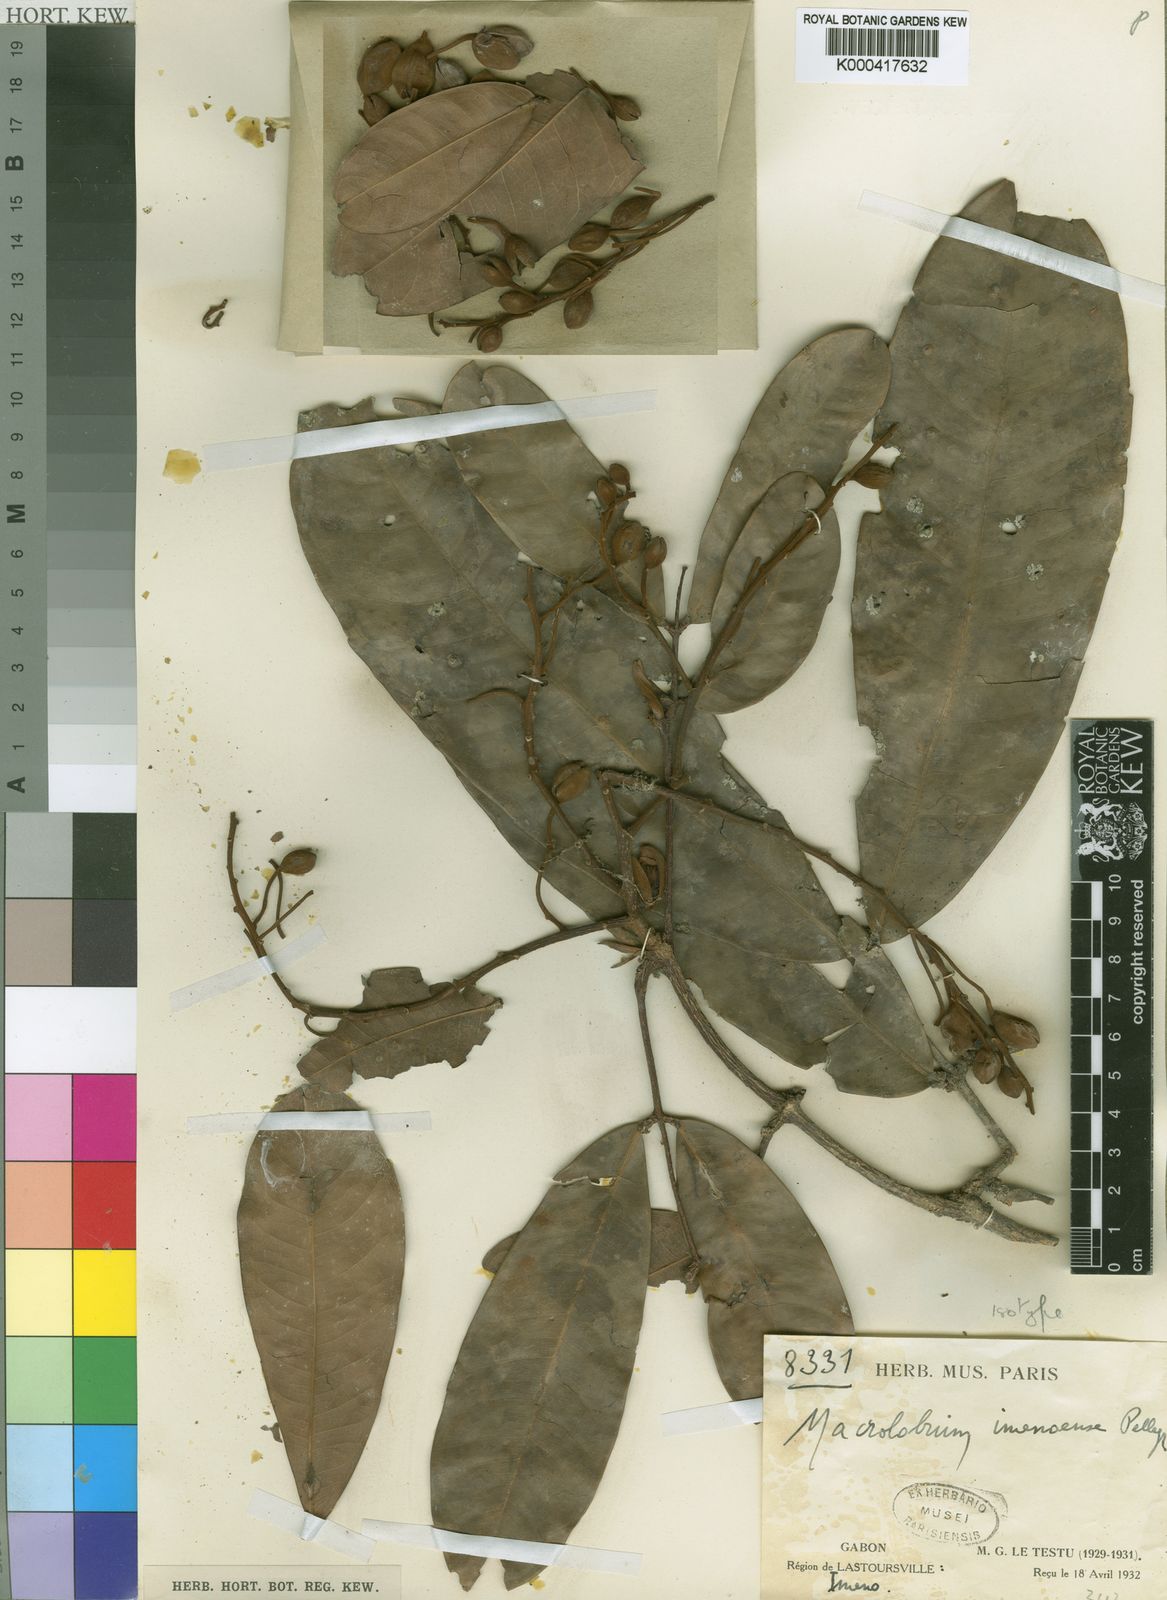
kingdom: Plantae
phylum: Tracheophyta
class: Magnoliopsida
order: Fabales
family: Fabaceae
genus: Gilbertiodendron
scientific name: Gilbertiodendron
